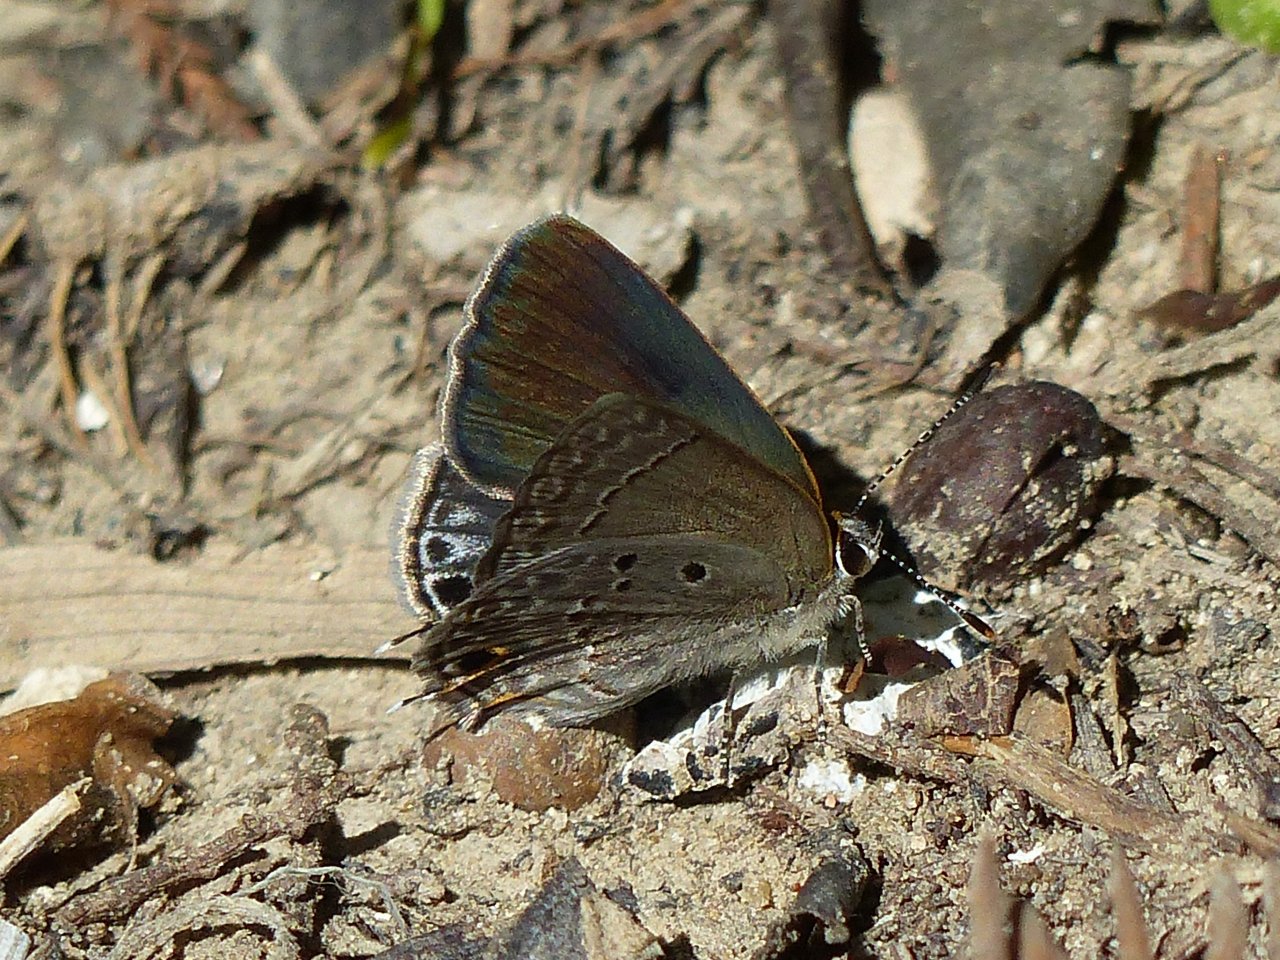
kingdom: Animalia
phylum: Arthropoda
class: Insecta
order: Lepidoptera
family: Lycaenidae
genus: Callicista
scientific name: Callicista columella
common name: Mallow Scrub-Hairstreak
